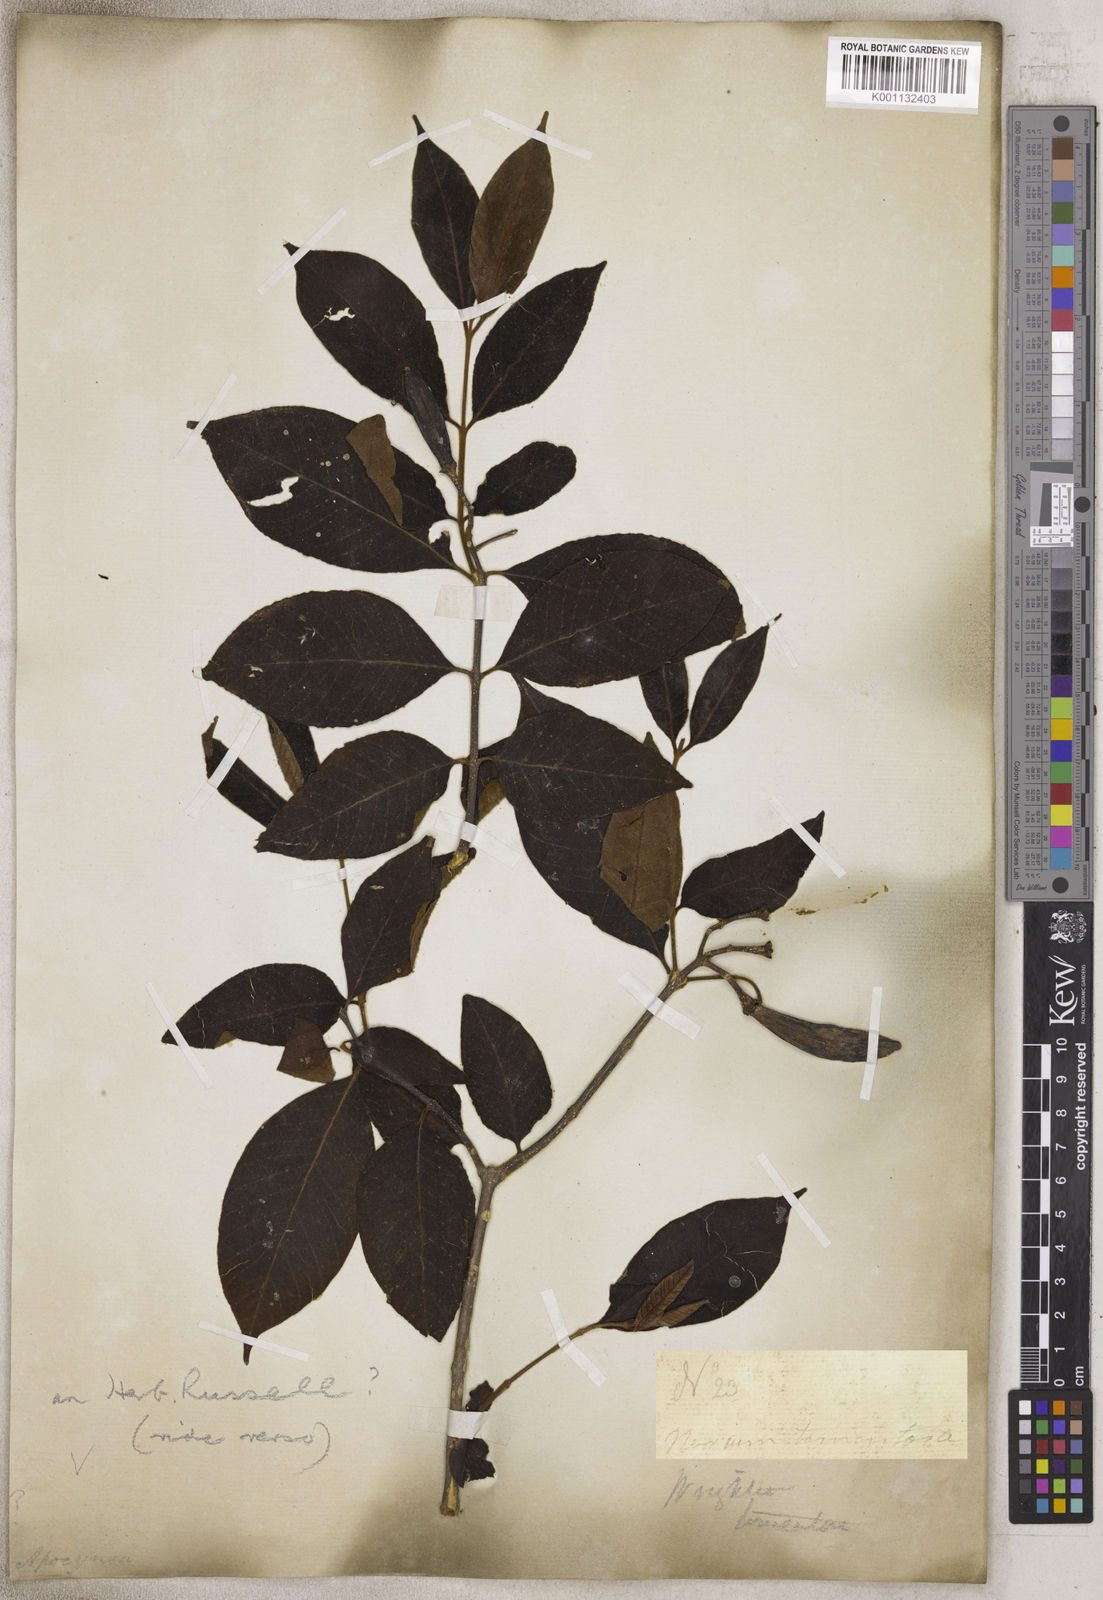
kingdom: Plantae
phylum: Tracheophyta
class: Magnoliopsida
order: Gentianales
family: Apocynaceae
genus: Wrightia
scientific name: Wrightia
